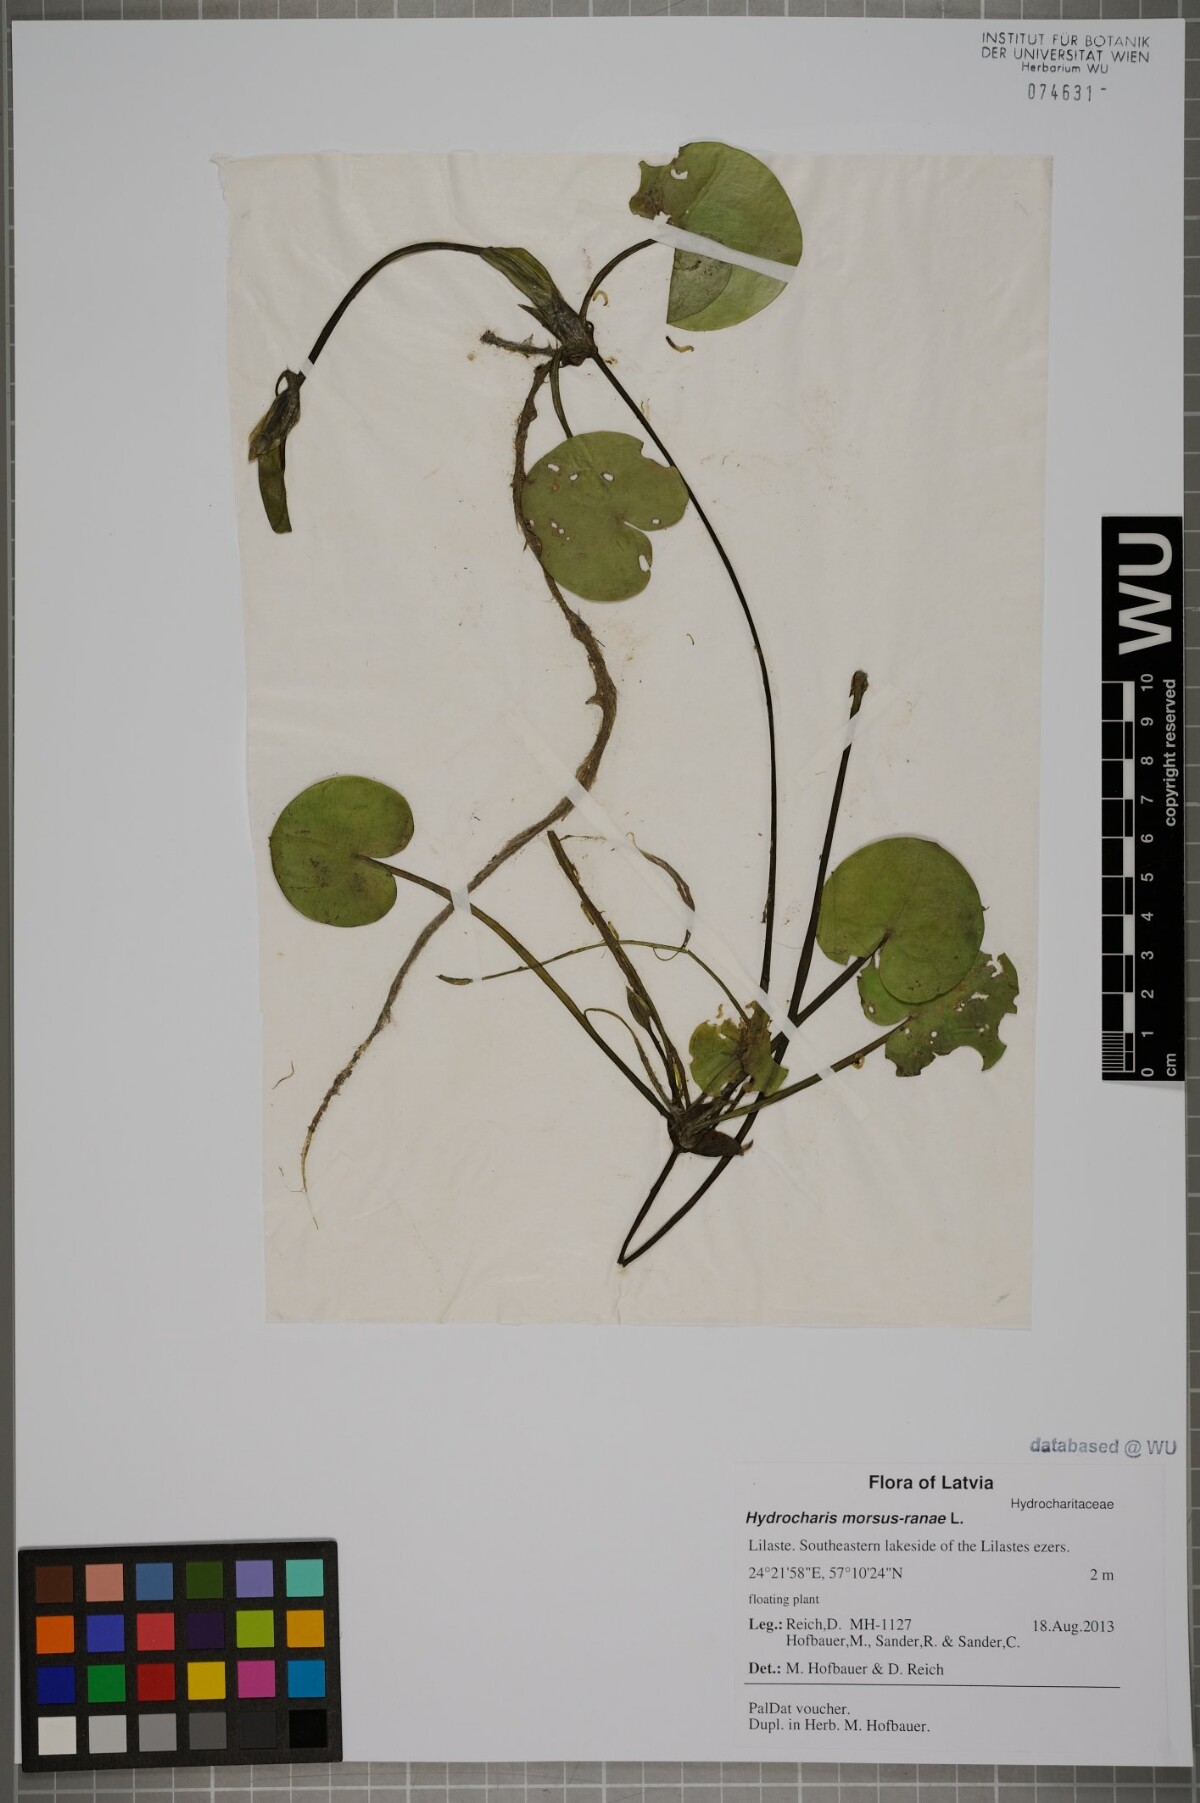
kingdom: Plantae
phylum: Tracheophyta
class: Liliopsida
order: Alismatales
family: Hydrocharitaceae
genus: Hydrocharis
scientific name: Hydrocharis morsus-ranae
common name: Frogbit
